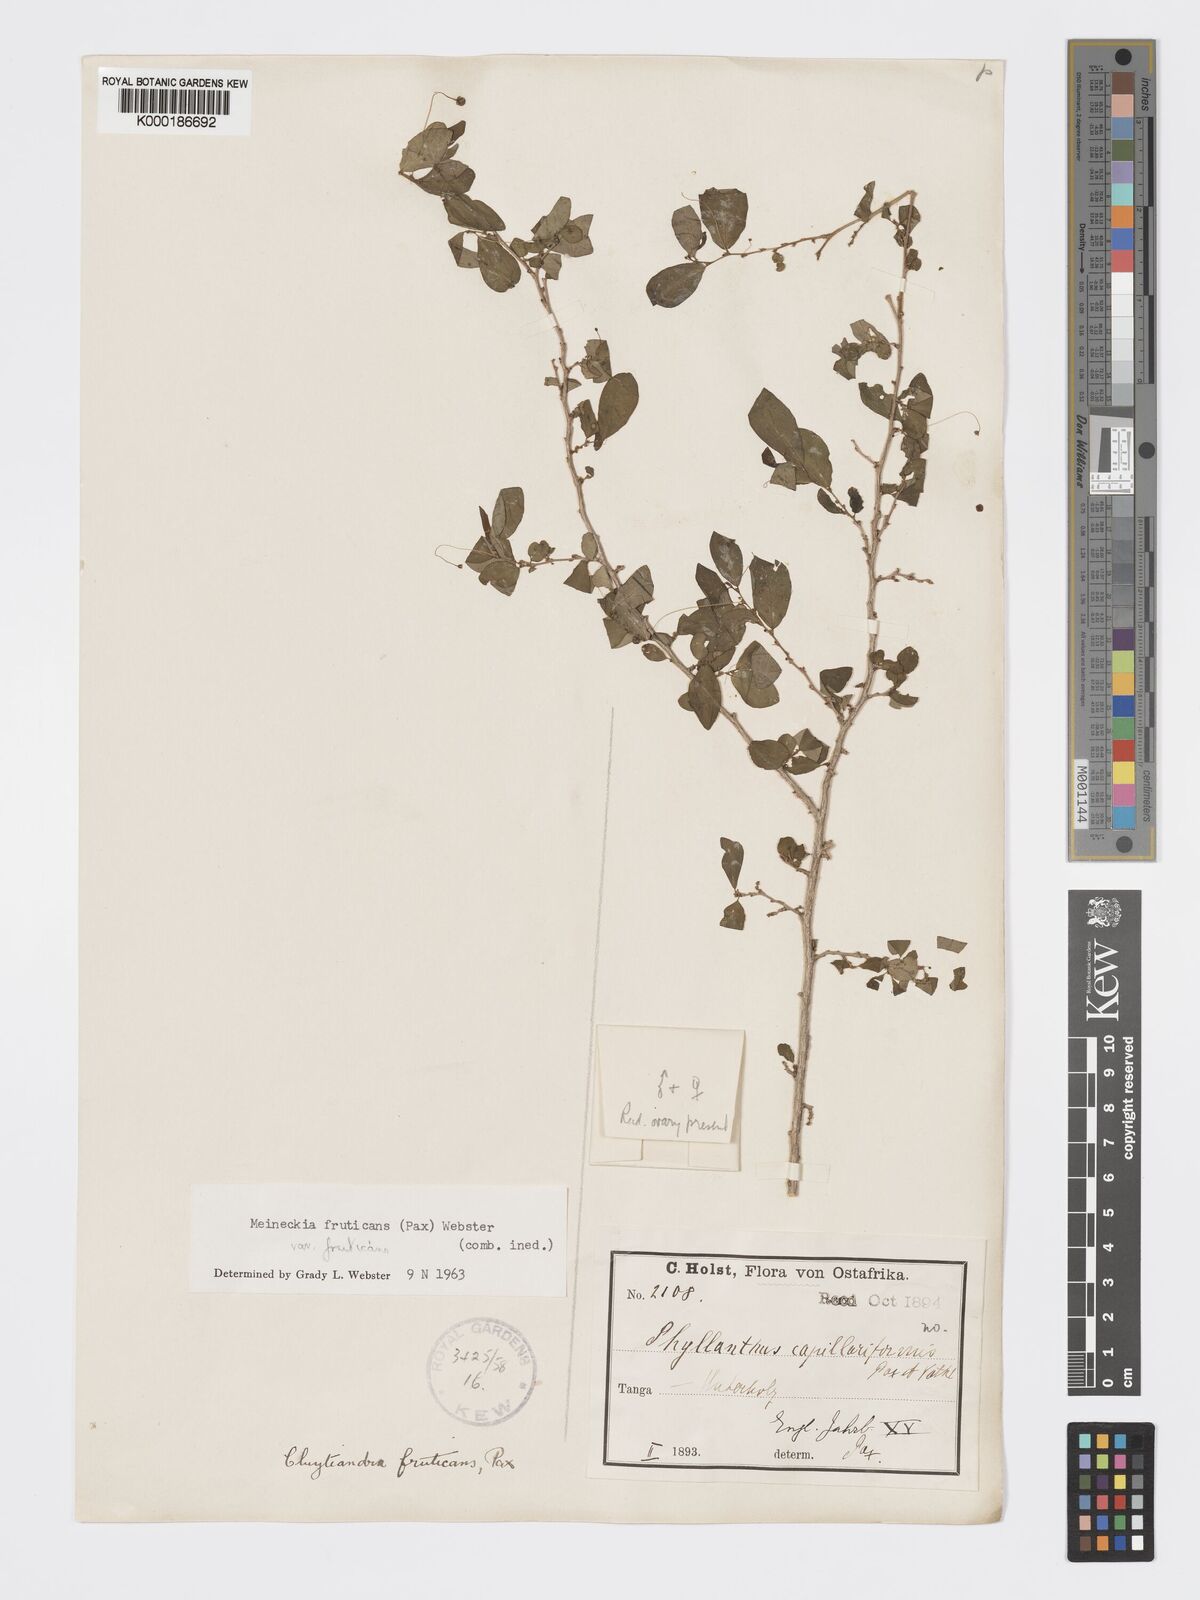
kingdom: Plantae
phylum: Tracheophyta
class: Magnoliopsida
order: Malpighiales
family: Phyllanthaceae
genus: Meineckia
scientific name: Meineckia fruticans
